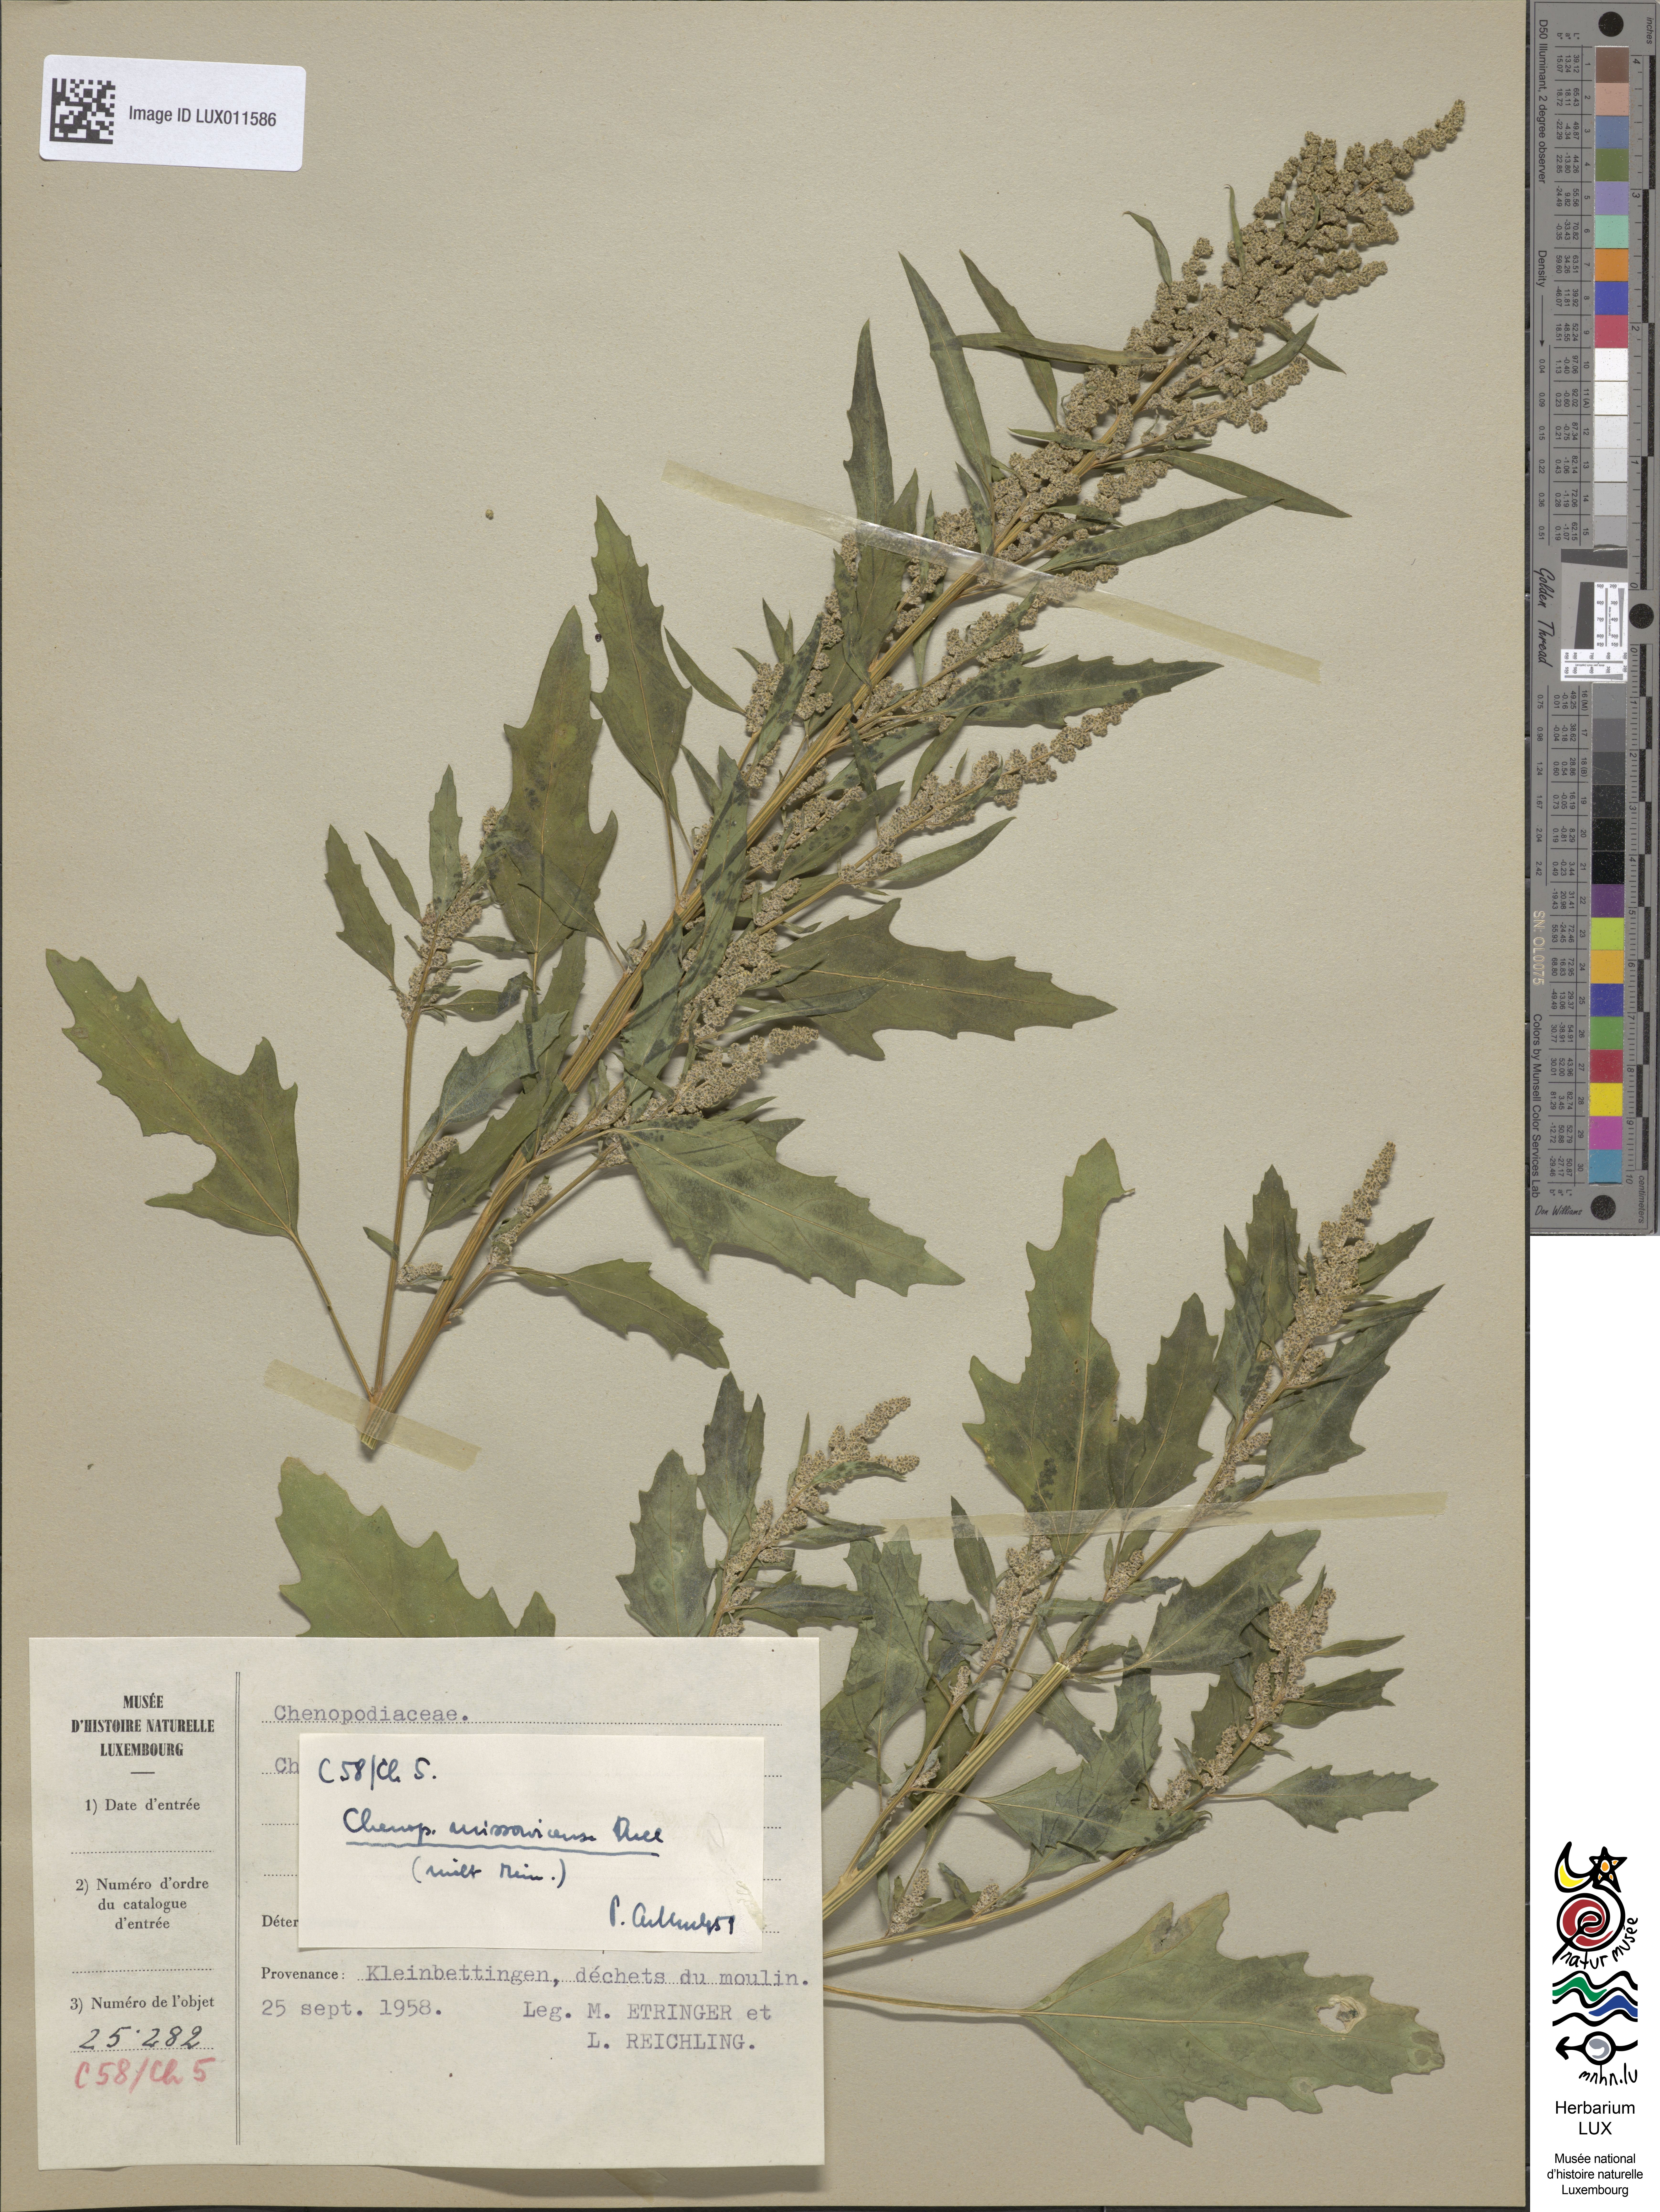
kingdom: Plantae
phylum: Tracheophyta
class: Magnoliopsida
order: Caryophyllales
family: Amaranthaceae
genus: Chenopodium
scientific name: Chenopodium album
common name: Fat-hen
